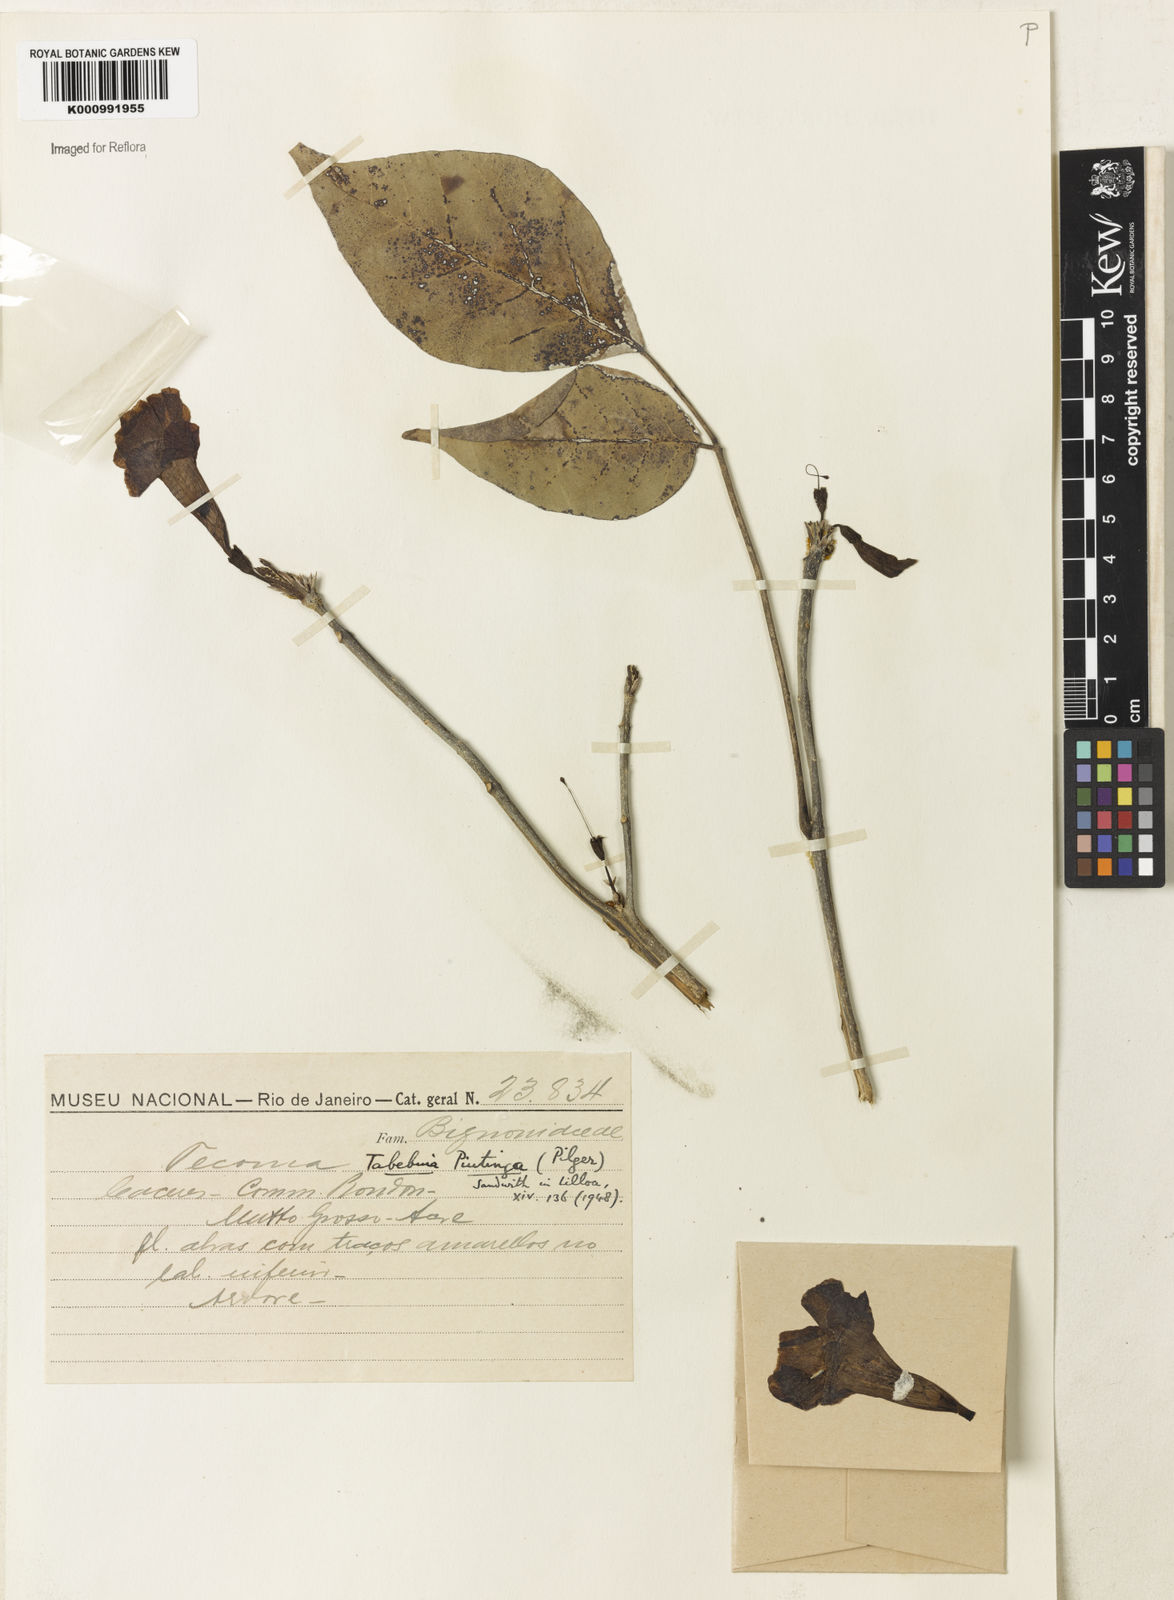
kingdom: Plantae
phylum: Tracheophyta
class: Magnoliopsida
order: Lamiales
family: Bignoniaceae
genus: Tabebuia
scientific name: Tabebuia roseoalba
